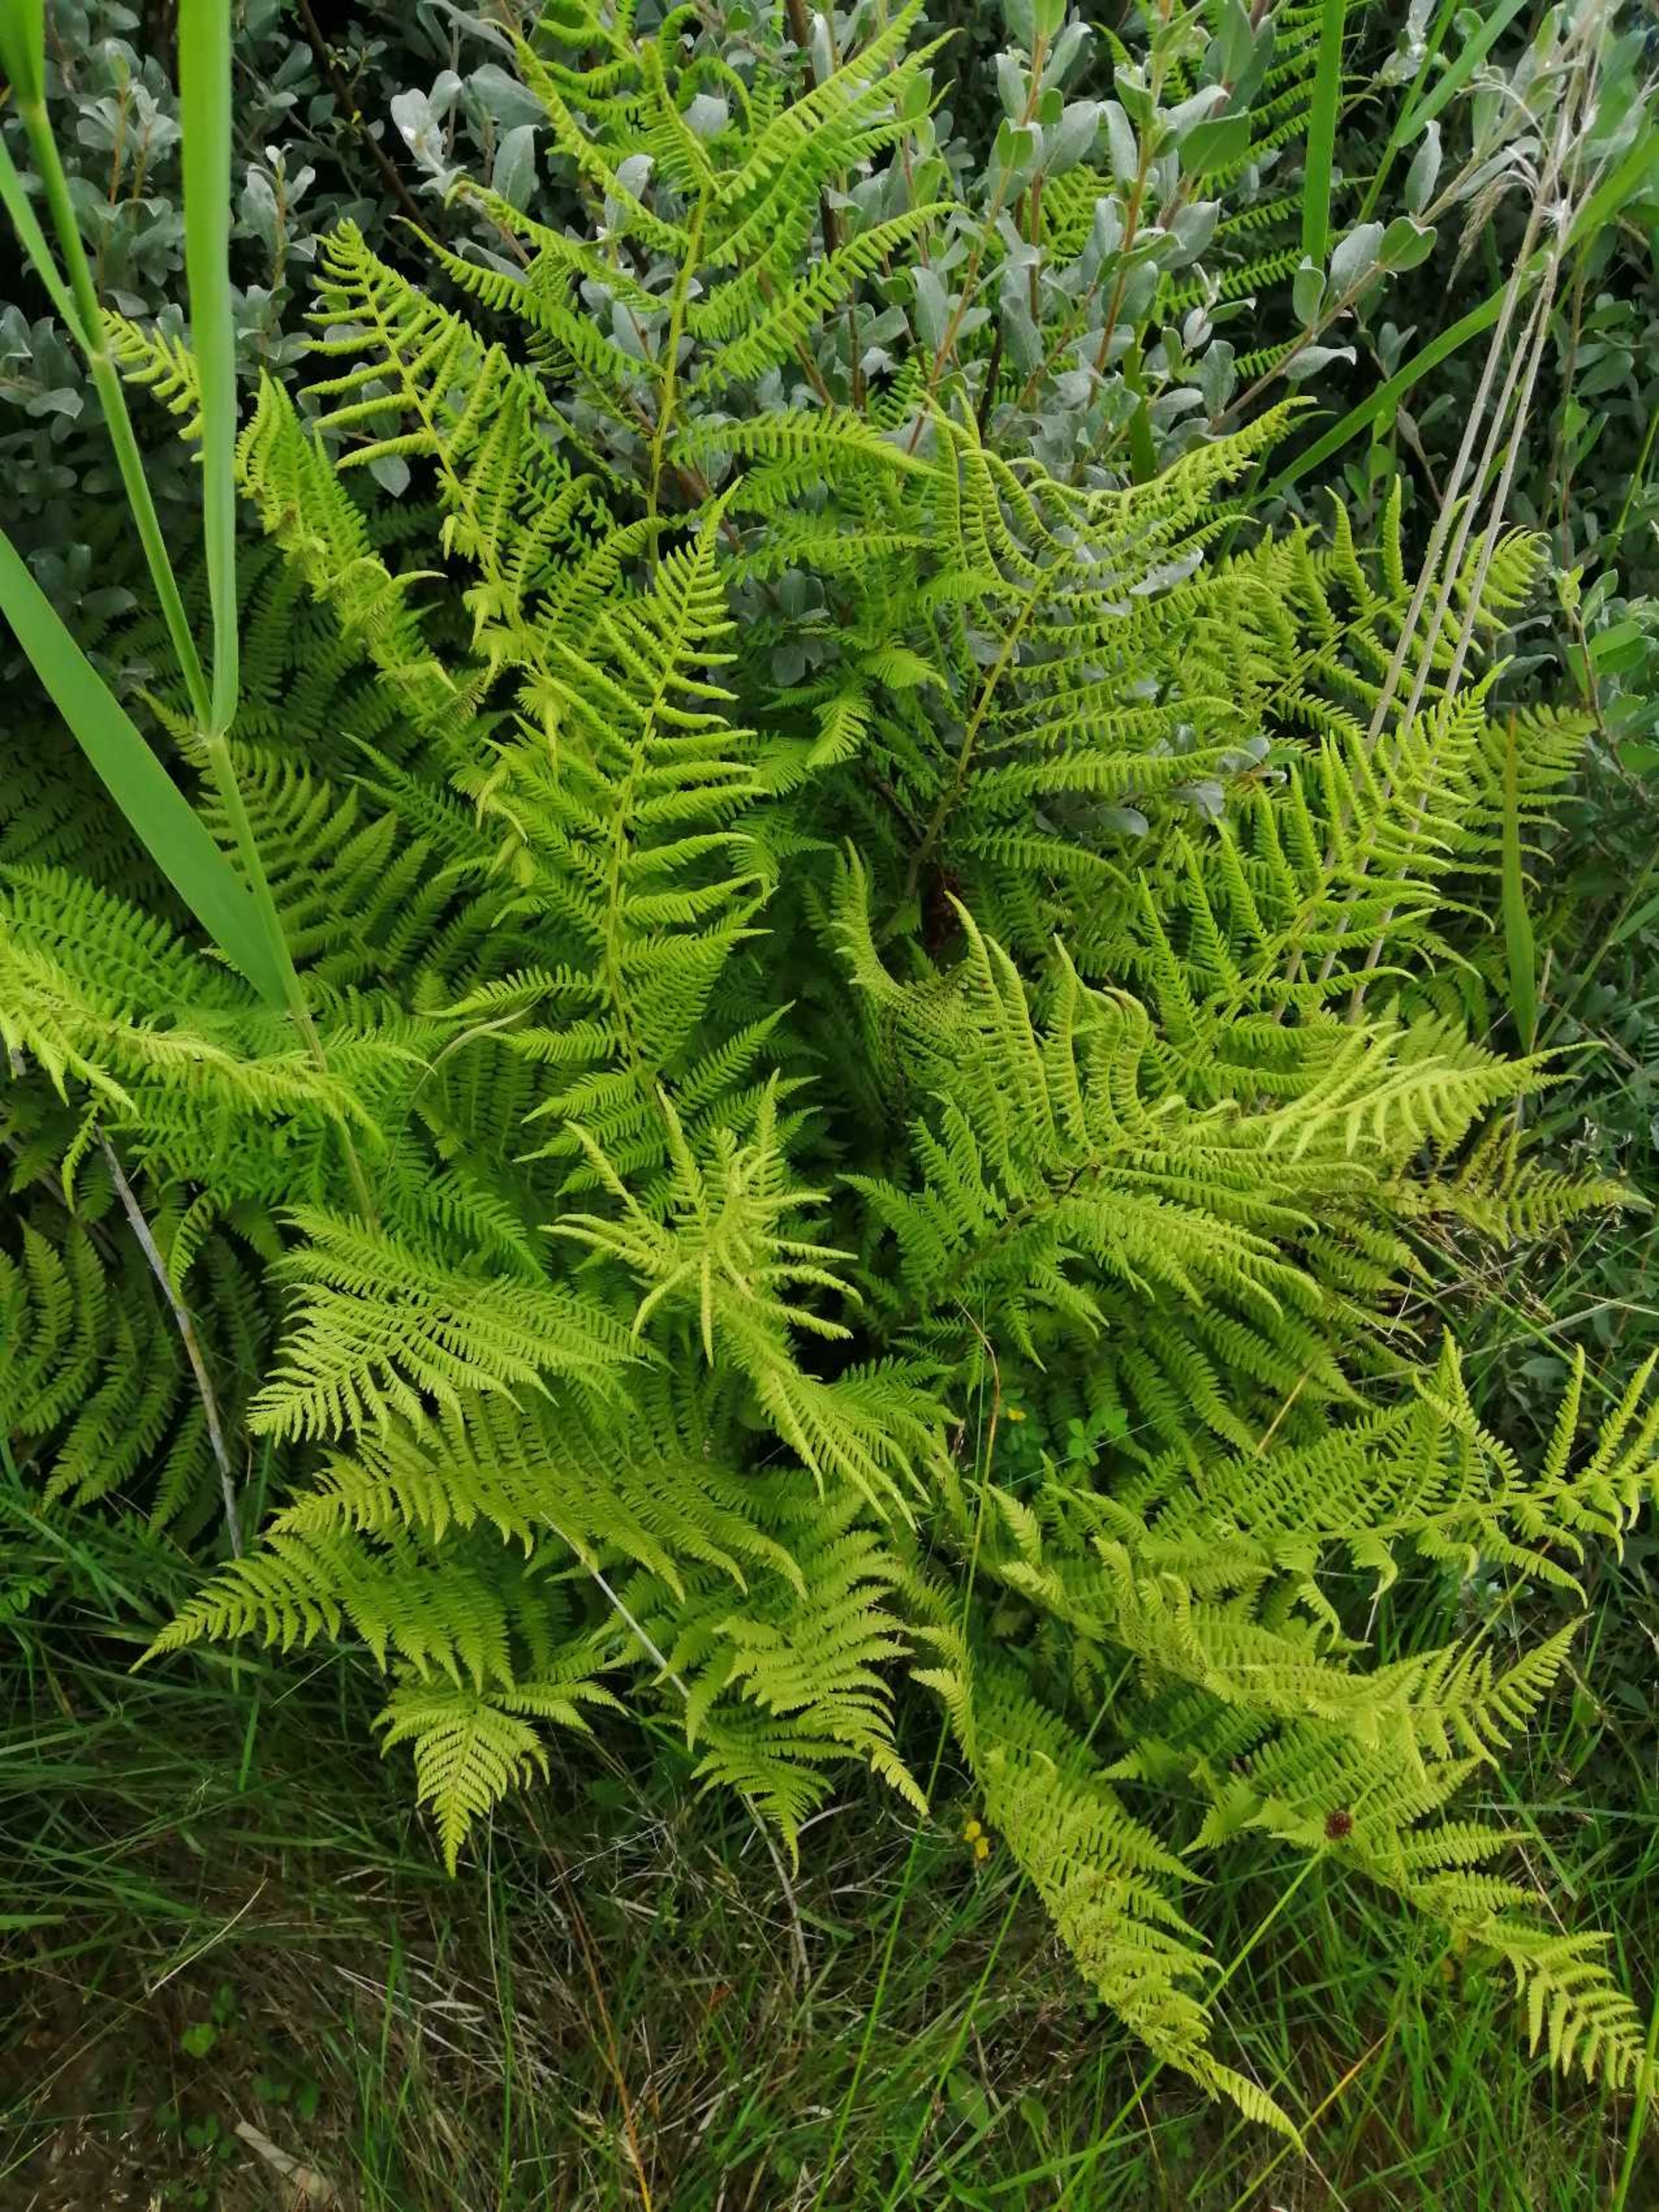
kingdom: Plantae
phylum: Tracheophyta
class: Polypodiopsida
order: Polypodiales
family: Athyriaceae
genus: Athyrium
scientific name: Athyrium filix-femina
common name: Fjerbregne
